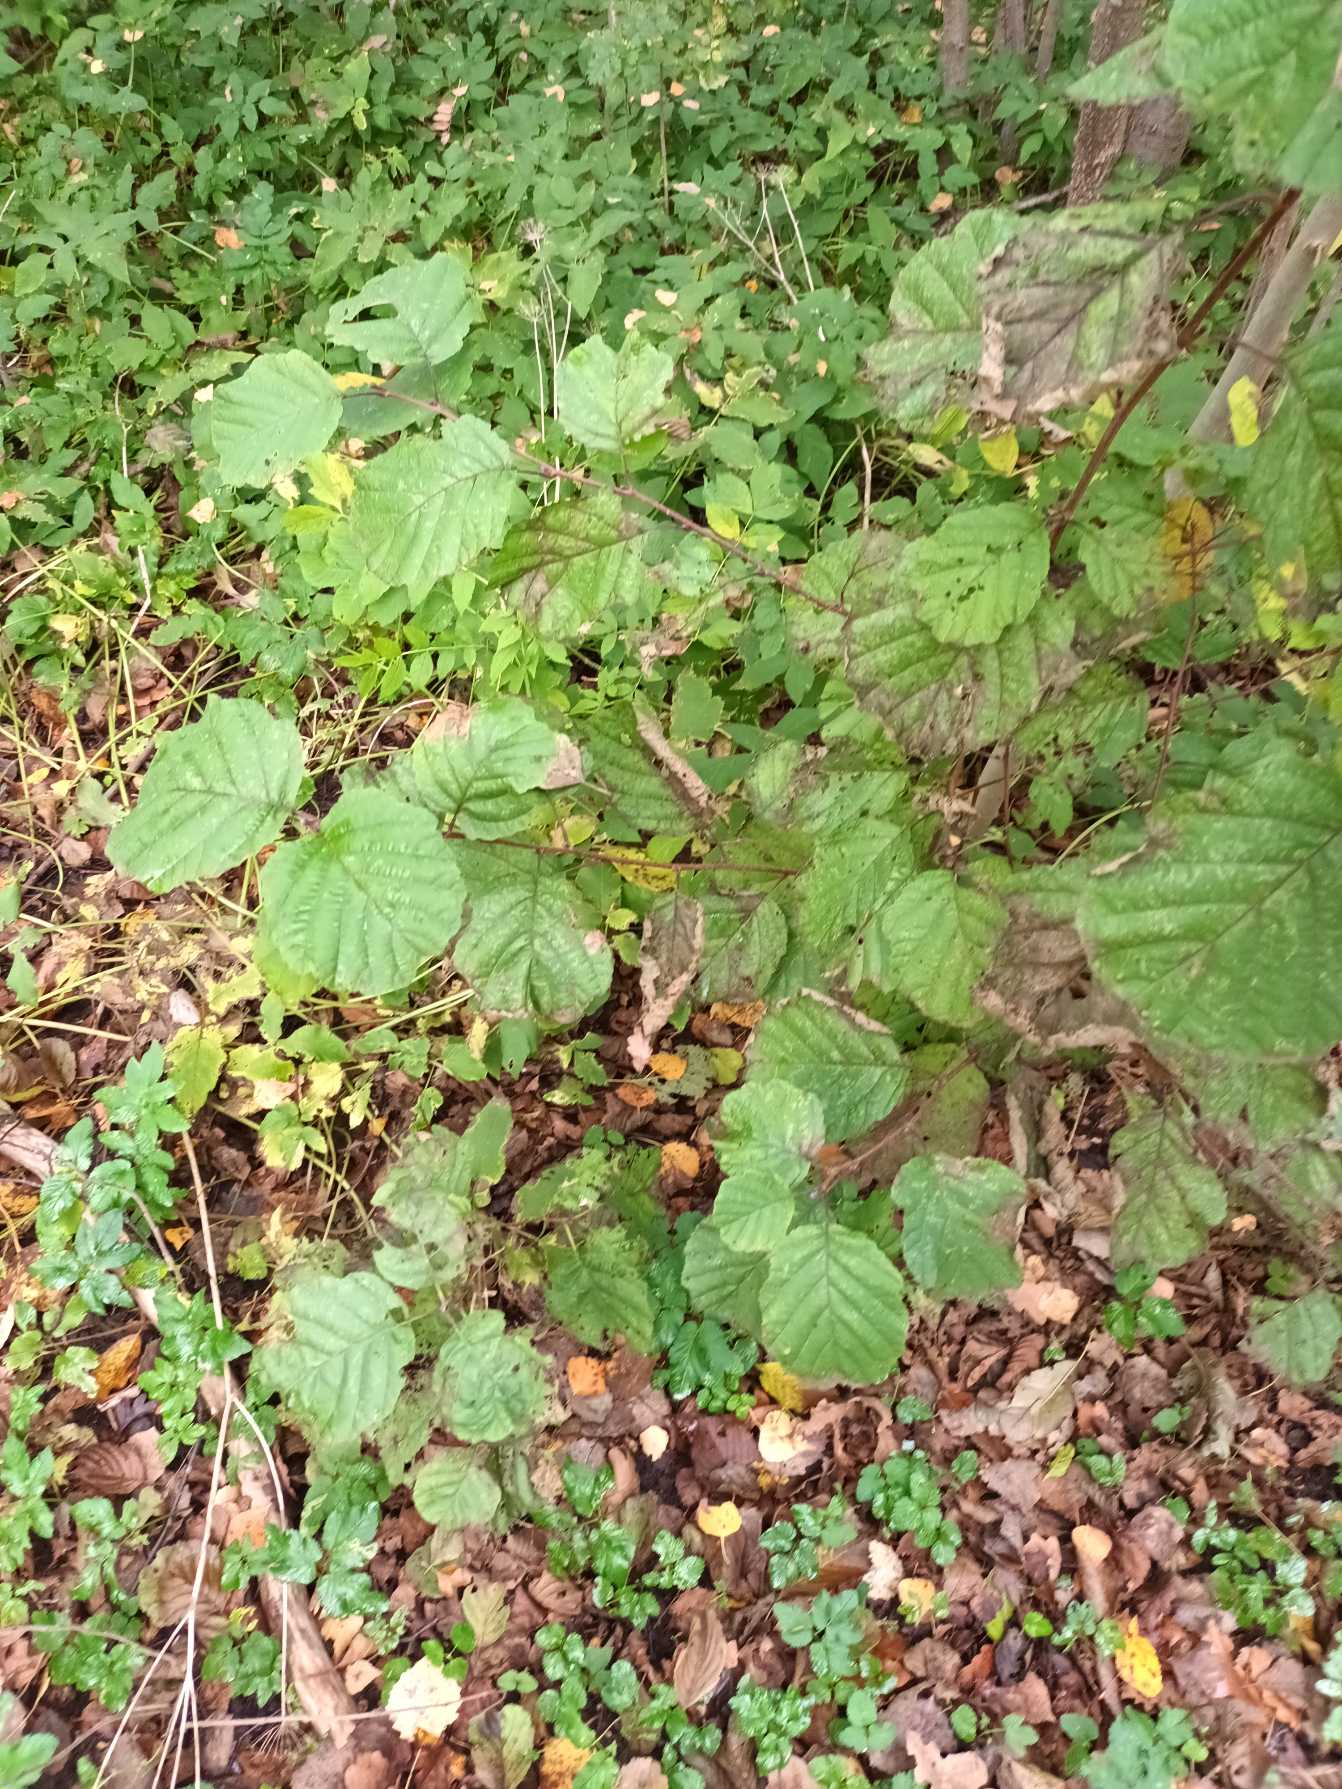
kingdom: Plantae
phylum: Tracheophyta
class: Magnoliopsida
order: Fagales
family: Betulaceae
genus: Alnus
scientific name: Alnus glutinosa
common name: Rød-el
